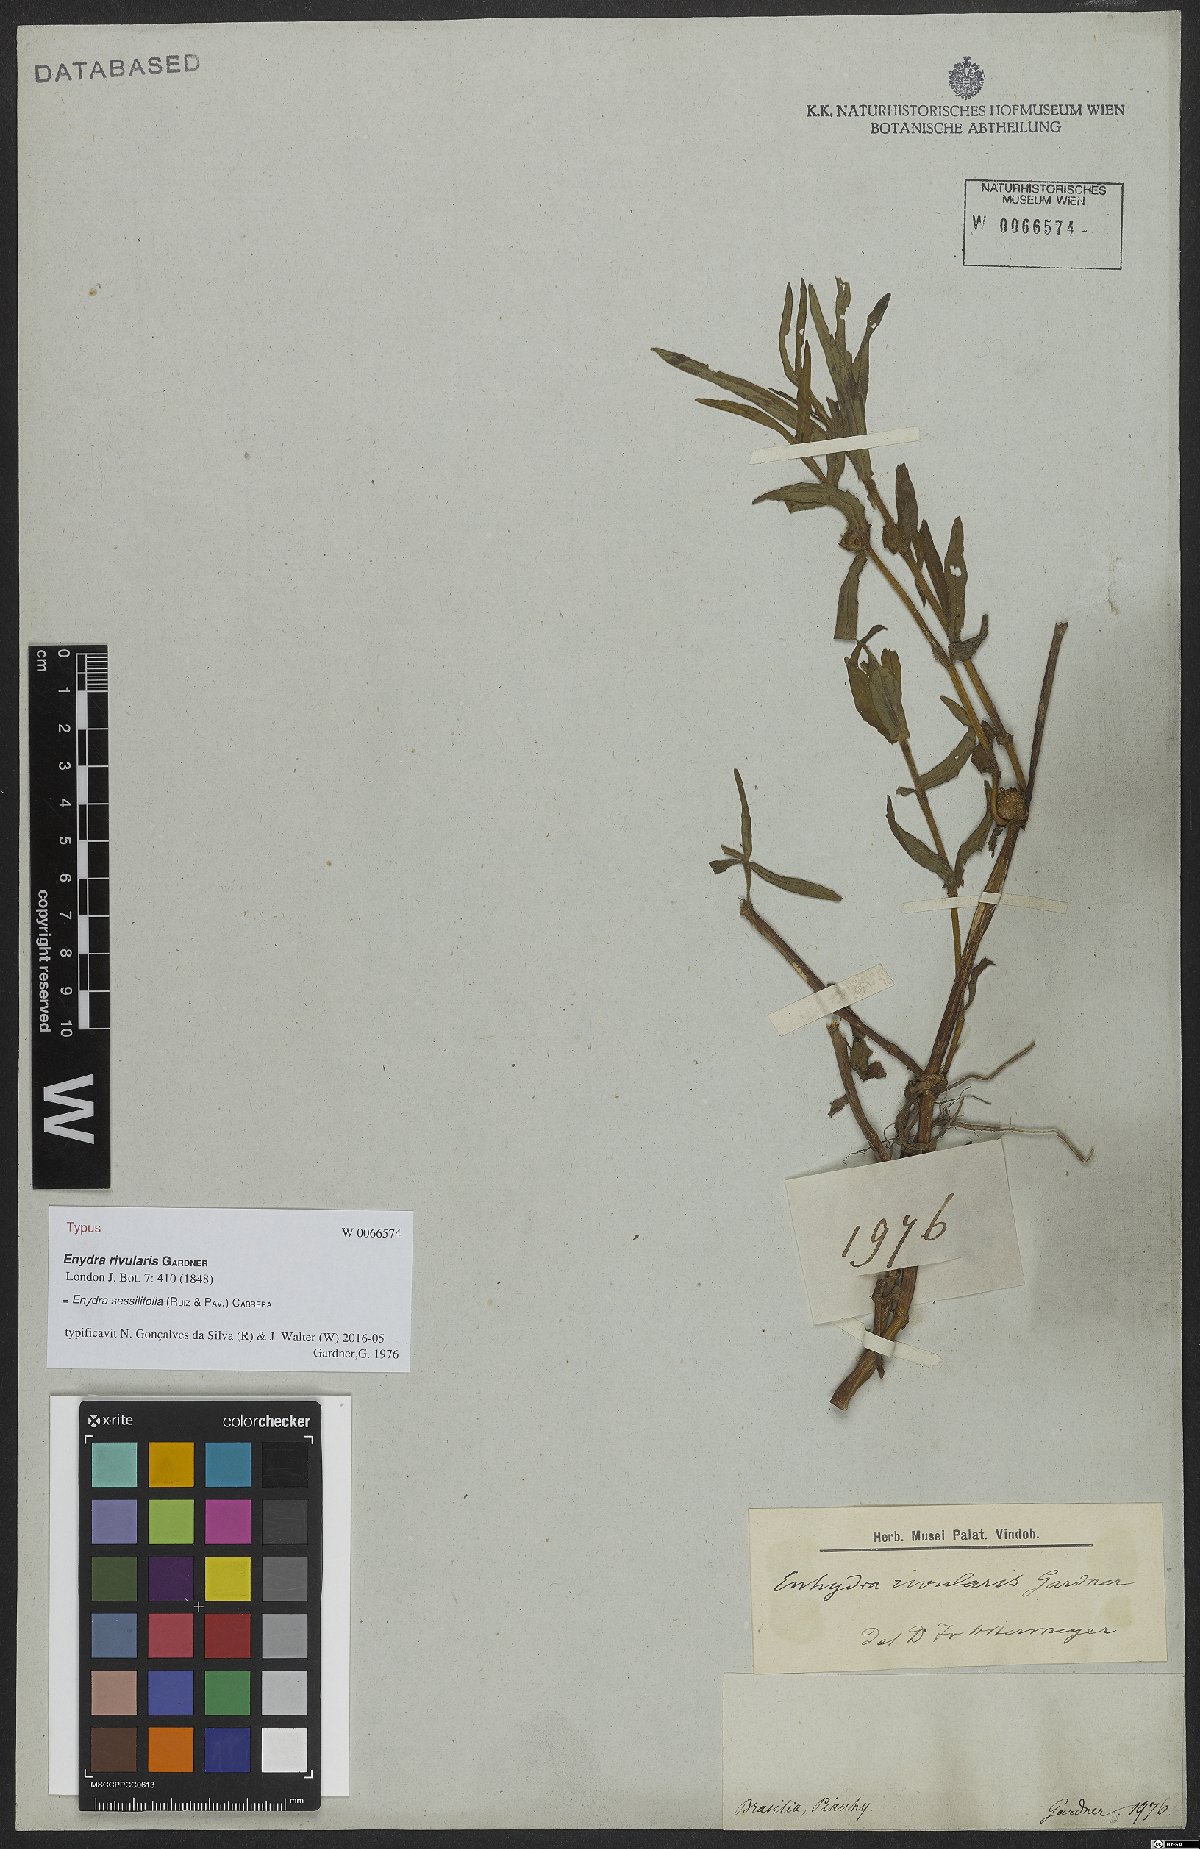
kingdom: Plantae
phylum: Tracheophyta
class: Magnoliopsida
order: Asterales
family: Asteraceae
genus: Enydra
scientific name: Enydra sessilifolia
